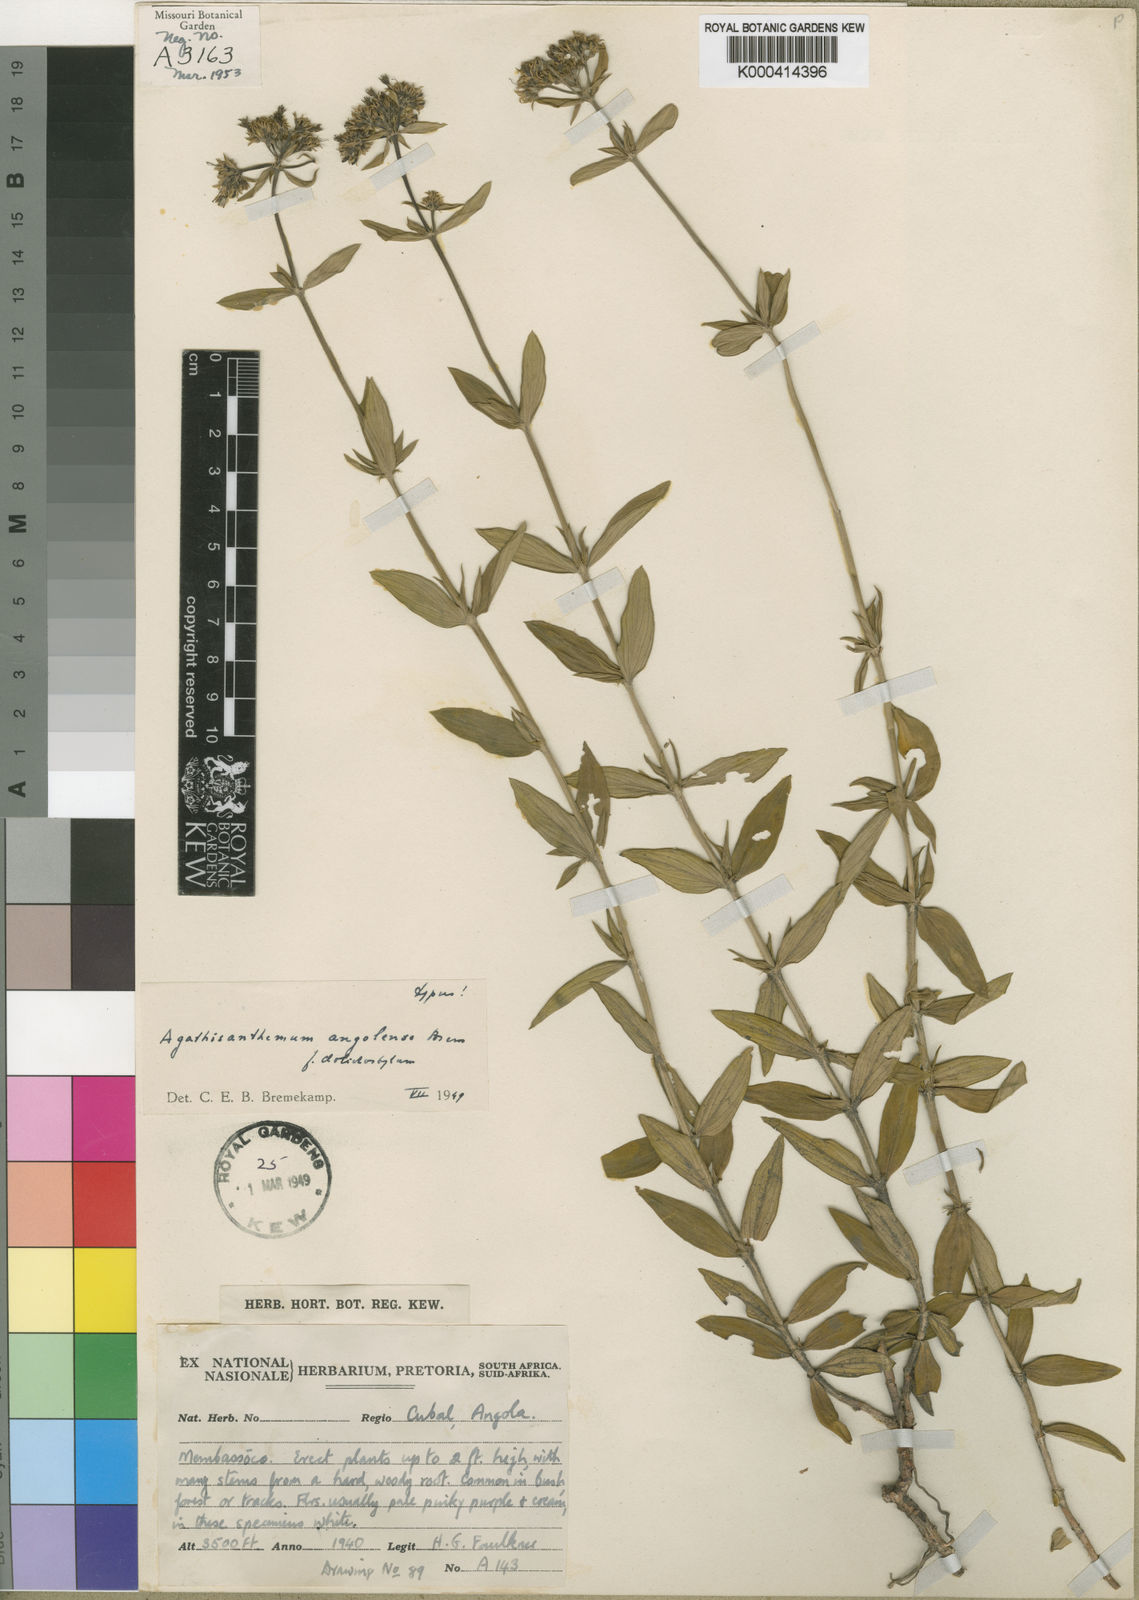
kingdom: Plantae
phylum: Tracheophyta
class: Magnoliopsida
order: Gentianales
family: Rubiaceae
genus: Agathisanthemum
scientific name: Agathisanthemum bojeri
